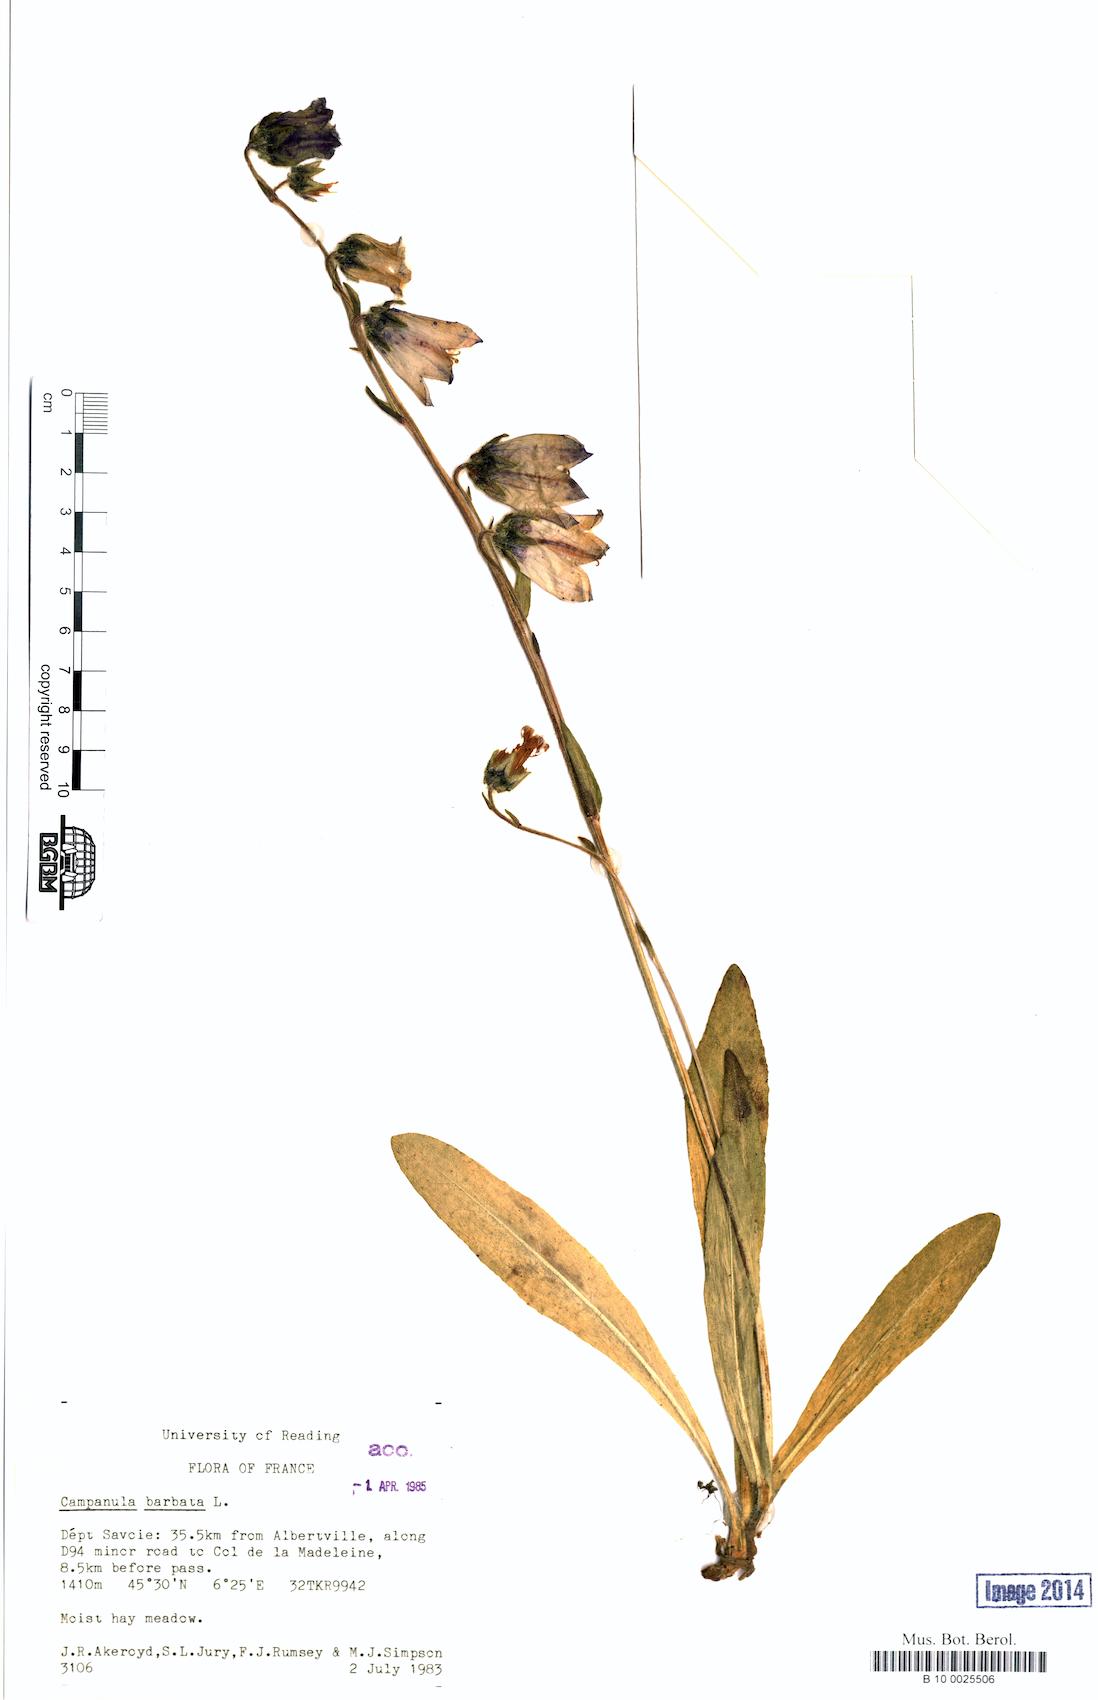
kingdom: Plantae
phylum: Tracheophyta
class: Magnoliopsida
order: Asterales
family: Campanulaceae
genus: Campanula
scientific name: Campanula barbata
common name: Bearded bellflower
